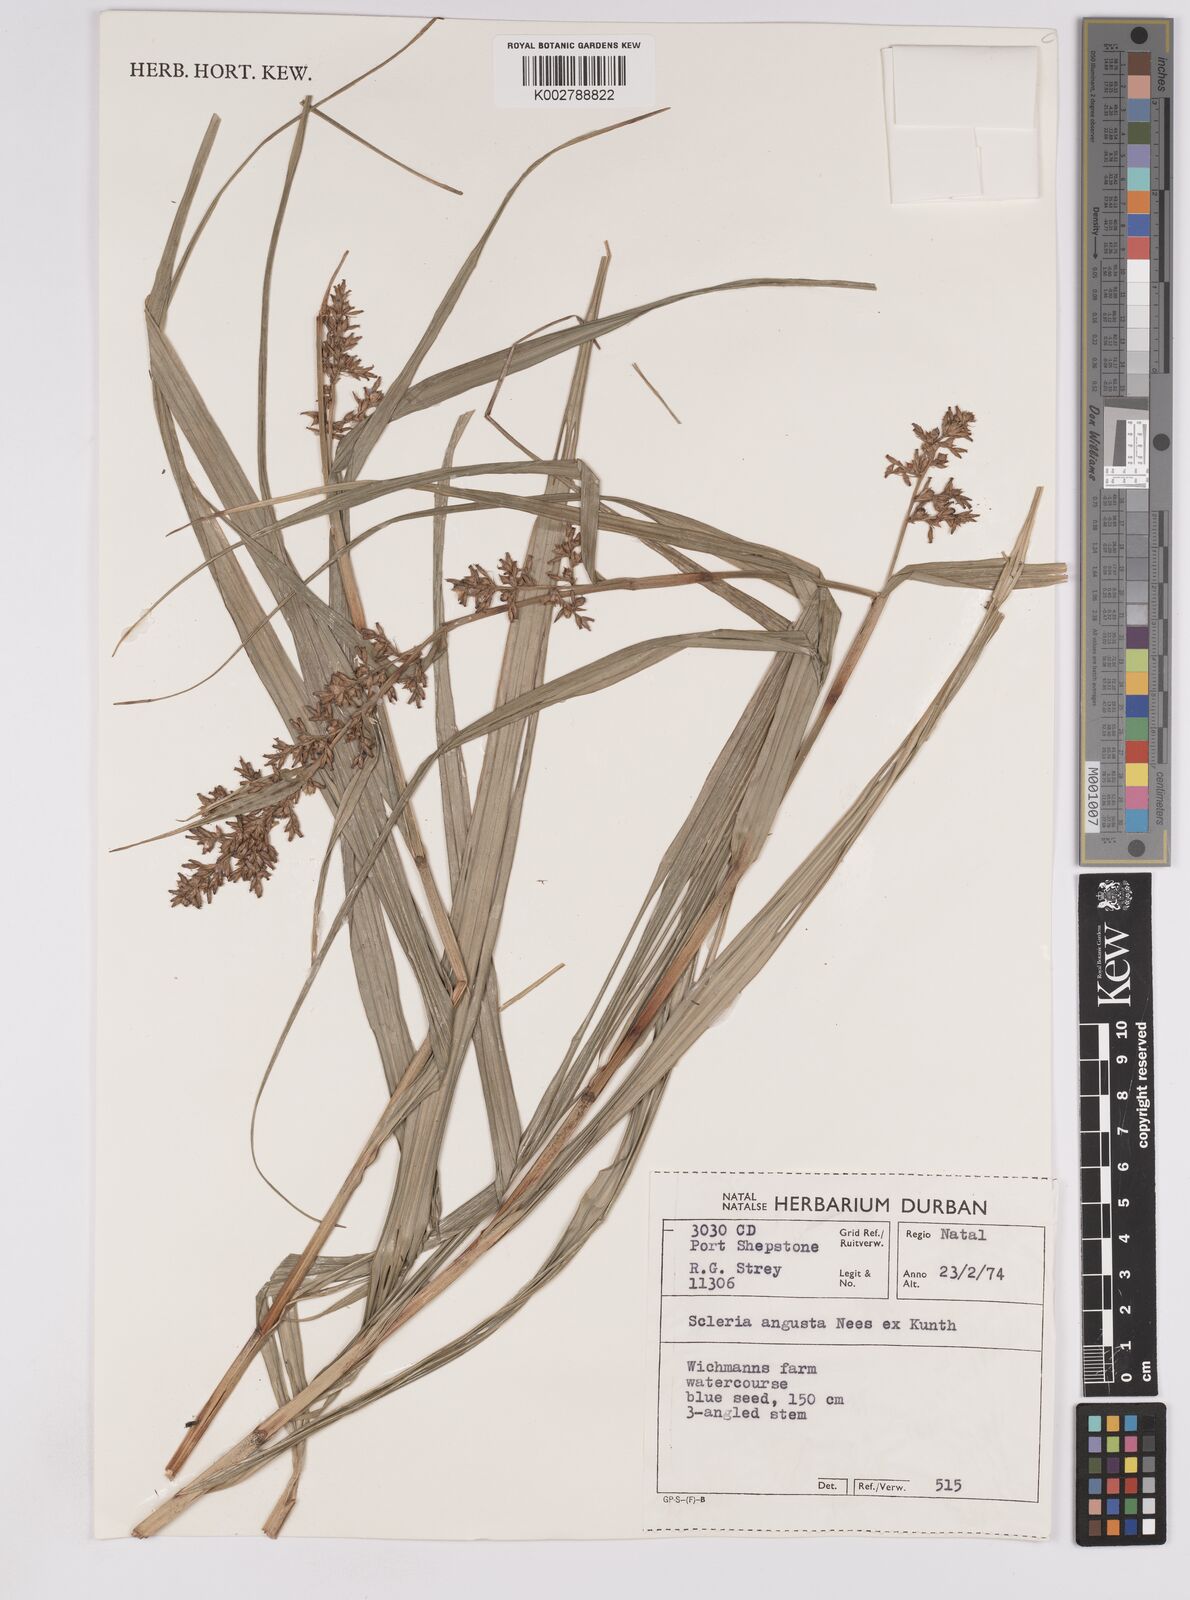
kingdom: Plantae
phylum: Tracheophyta
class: Liliopsida
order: Poales
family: Cyperaceae
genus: Scleria
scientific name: Scleria angusta
